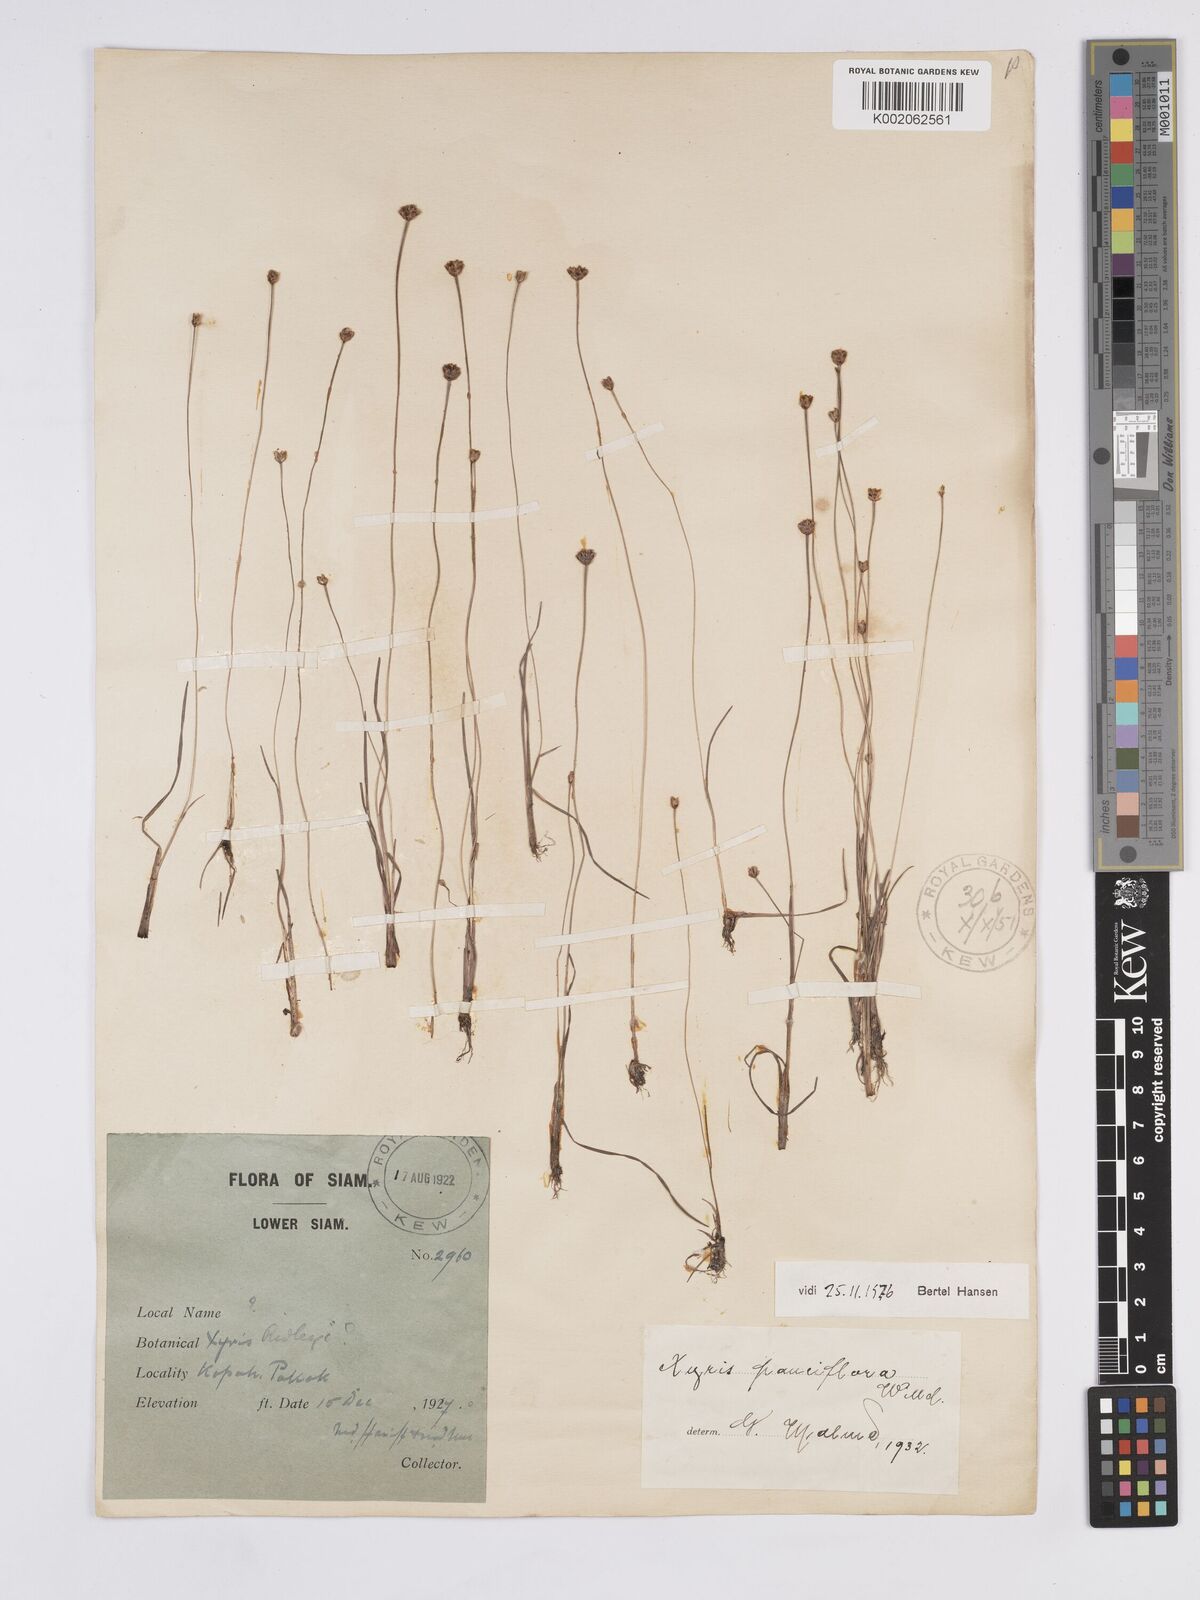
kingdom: Plantae
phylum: Tracheophyta
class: Liliopsida
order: Poales
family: Xyridaceae
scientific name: Xyridaceae
